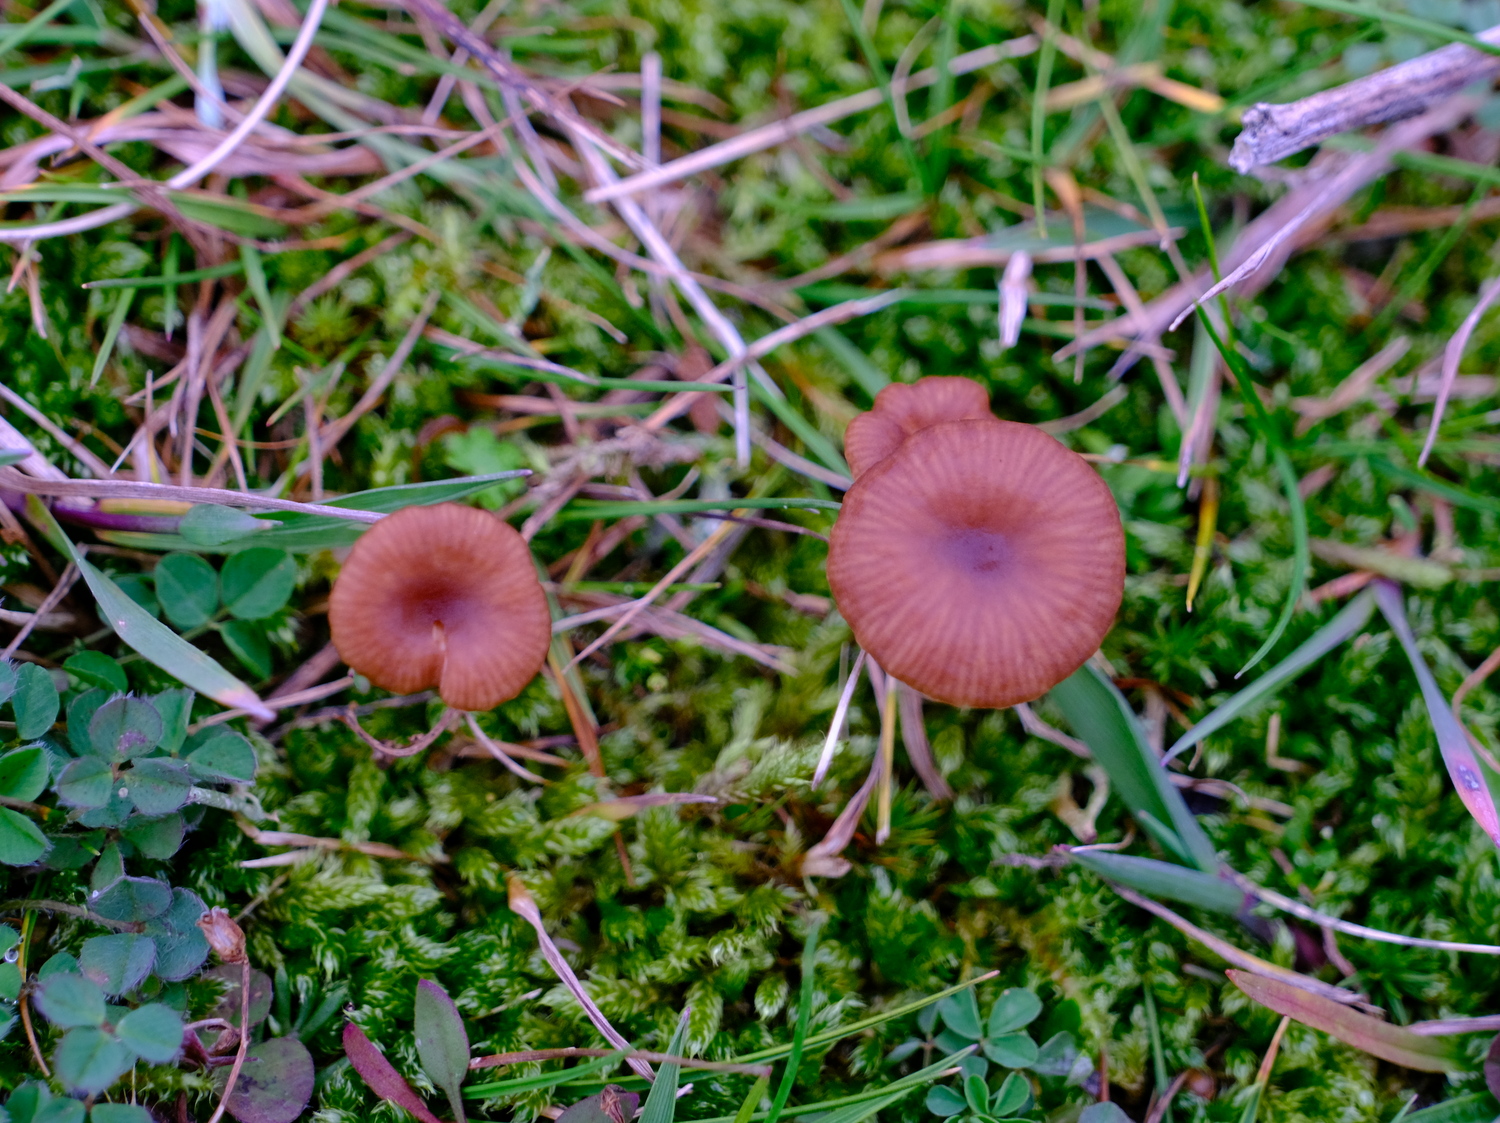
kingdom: Fungi
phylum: Basidiomycota
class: Agaricomycetes
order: Agaricales
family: Tricholomataceae
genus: Omphalina
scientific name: Omphalina pyxidata
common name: rødbrun navlehat
